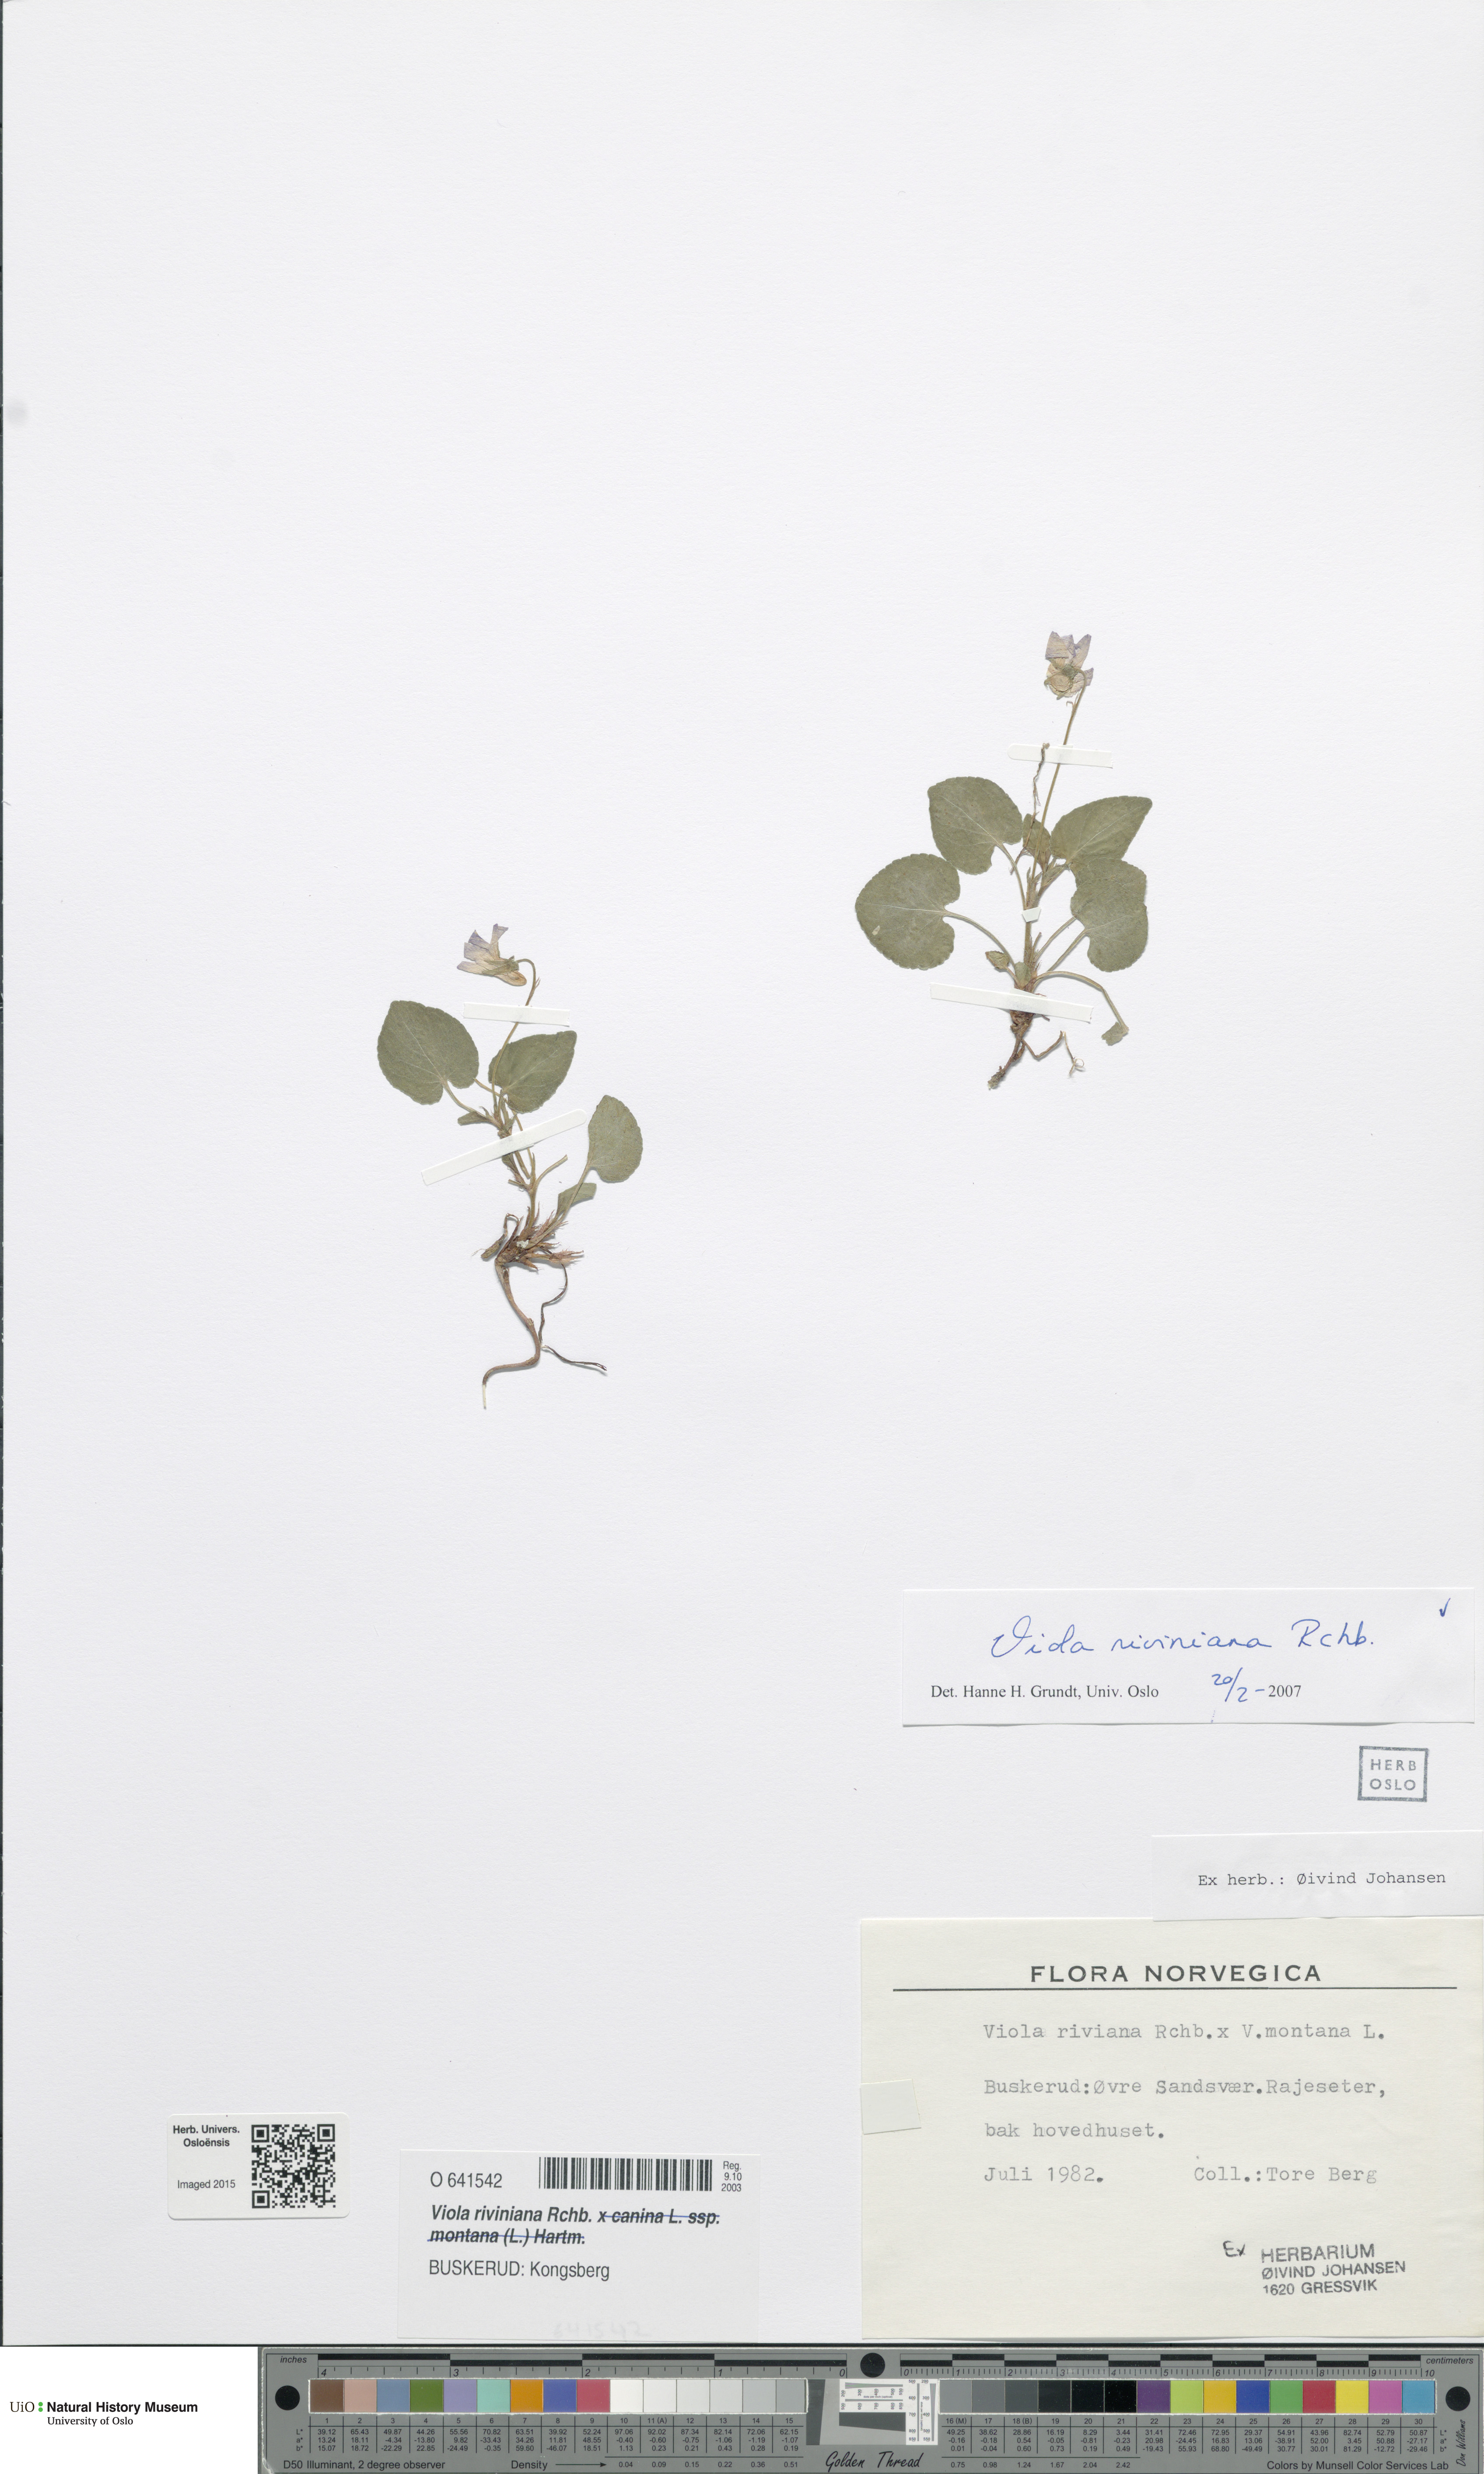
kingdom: Plantae
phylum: Tracheophyta
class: Magnoliopsida
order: Malpighiales
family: Violaceae
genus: Viola
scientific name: Viola riviniana
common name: Common dog-violet
